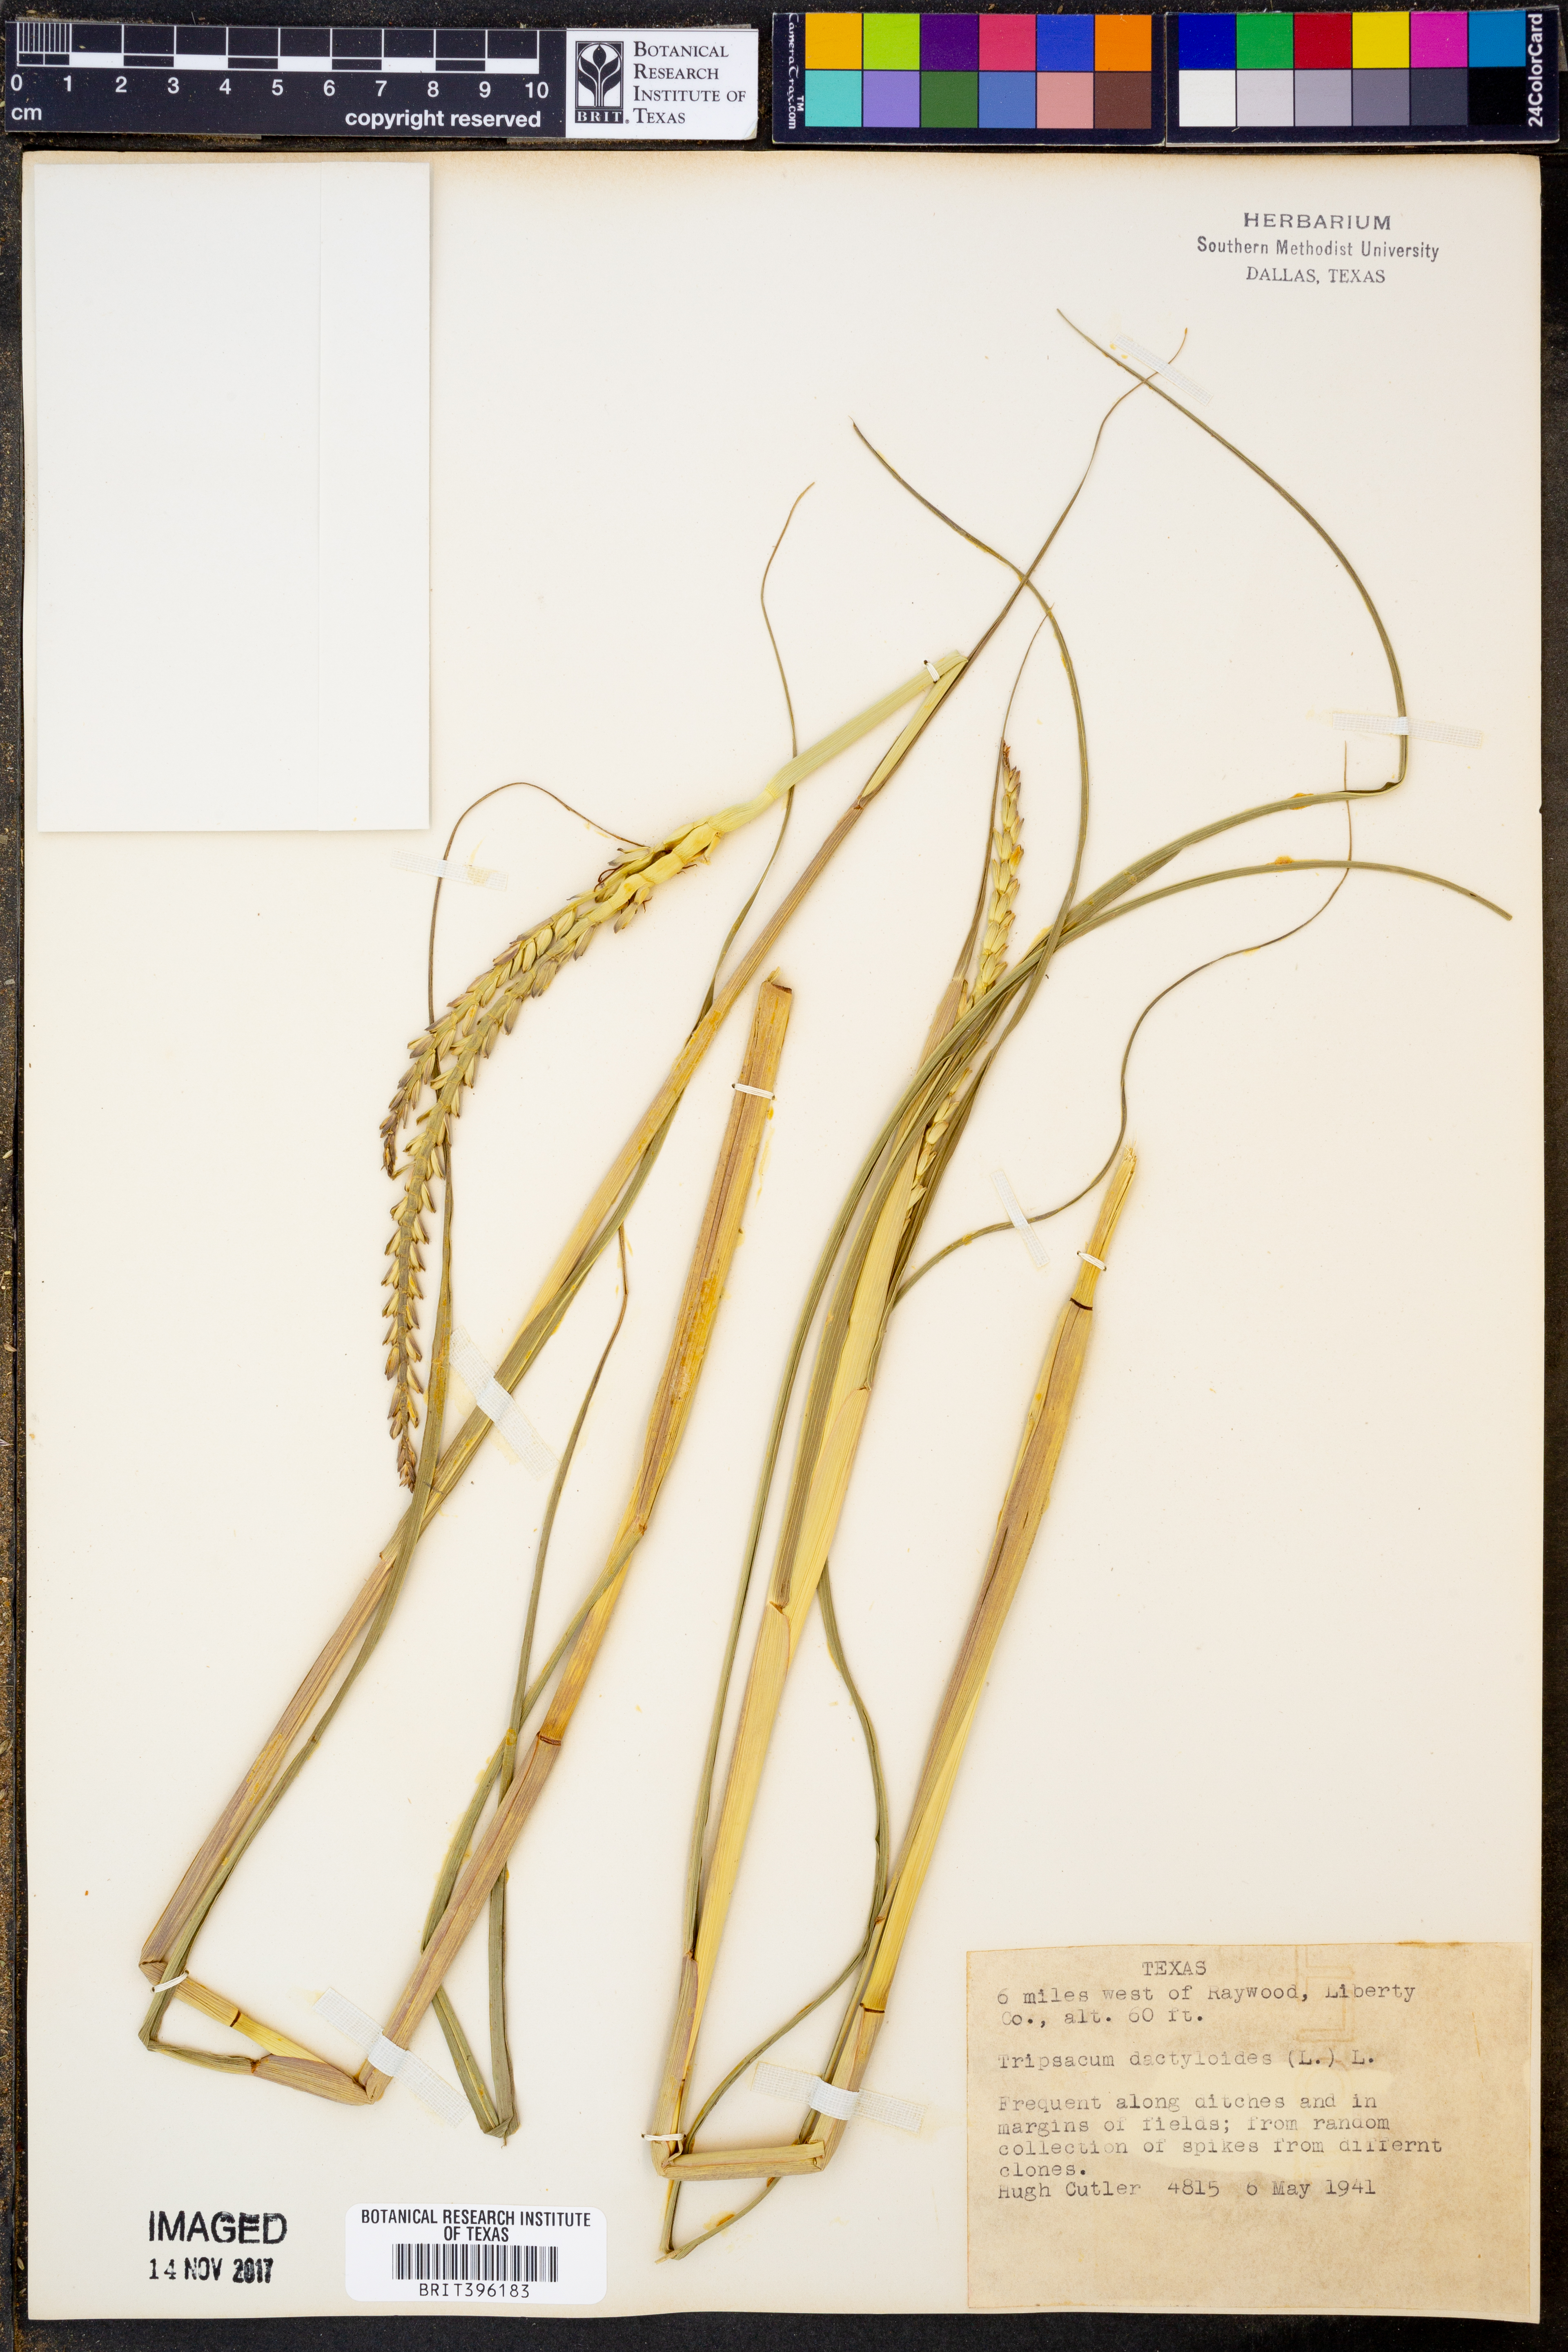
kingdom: Plantae
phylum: Tracheophyta
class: Liliopsida
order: Poales
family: Poaceae
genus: Tripsacum
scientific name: Tripsacum dactyloides
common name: Buffalo-grass
